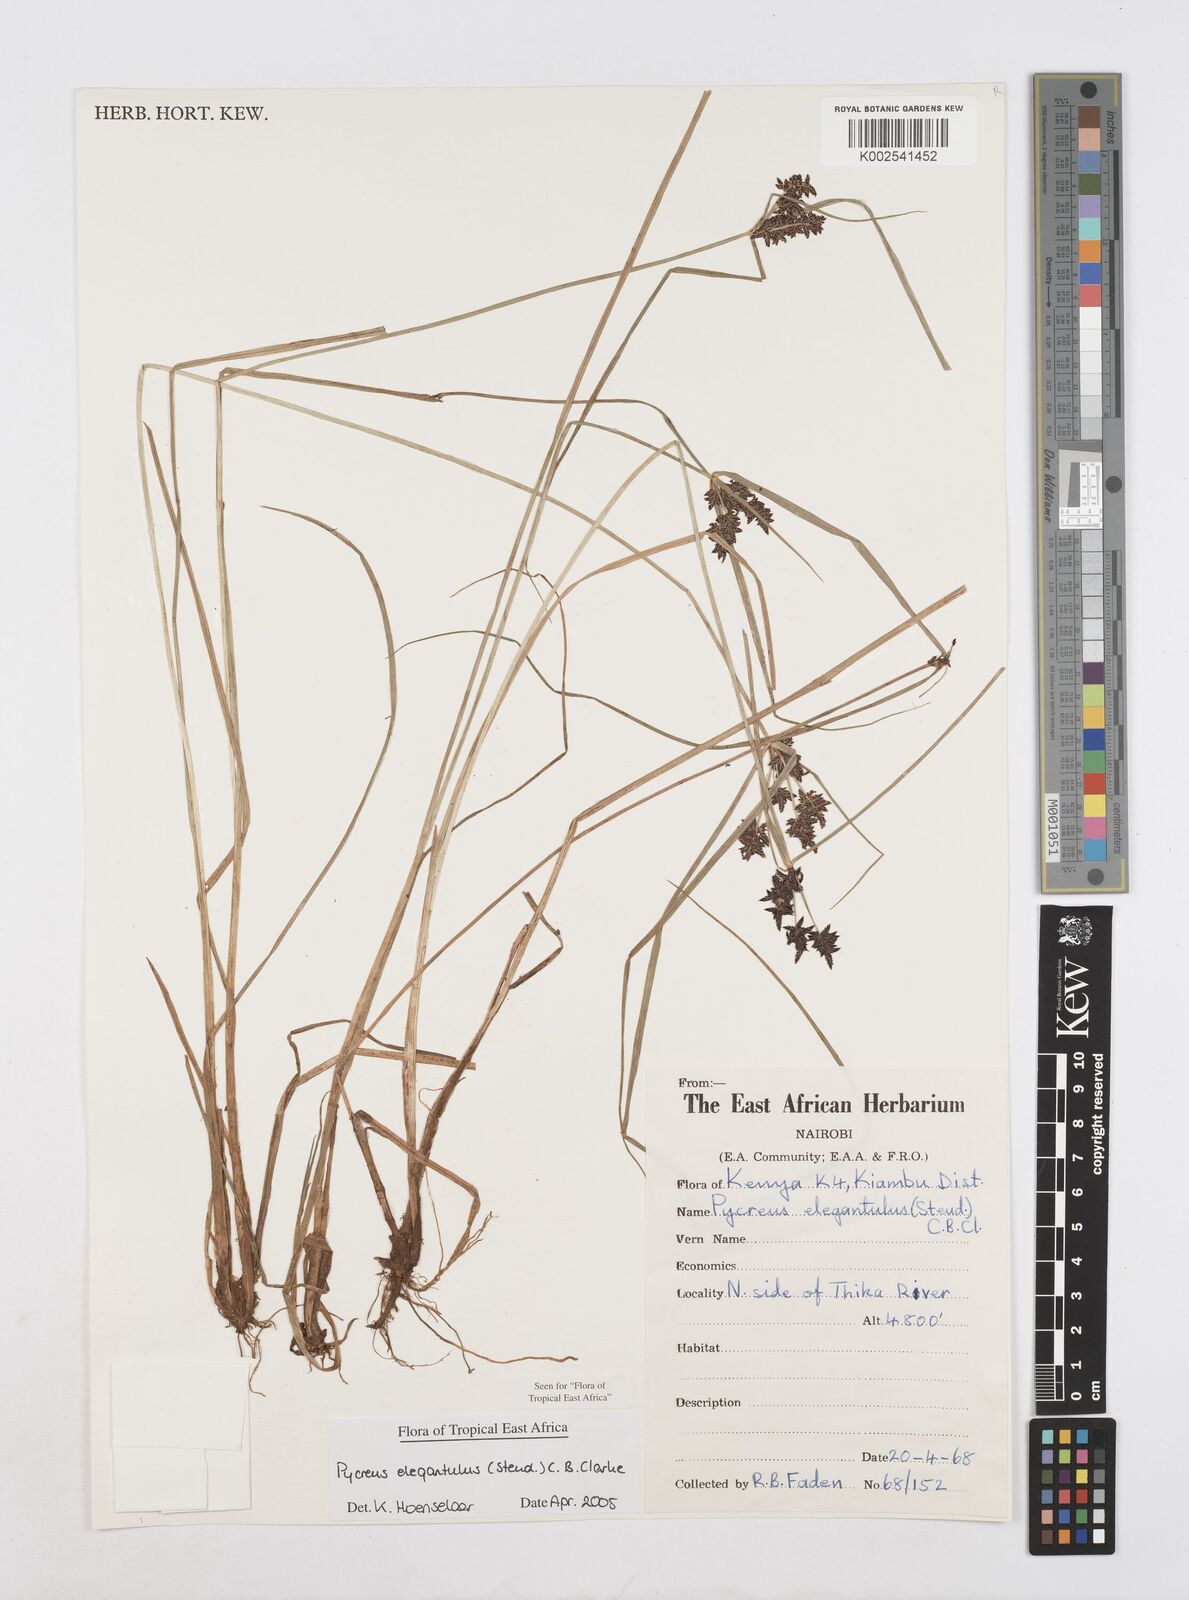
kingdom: Plantae
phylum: Tracheophyta
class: Liliopsida
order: Poales
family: Cyperaceae
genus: Cyperus
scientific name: Cyperus elegantulus
